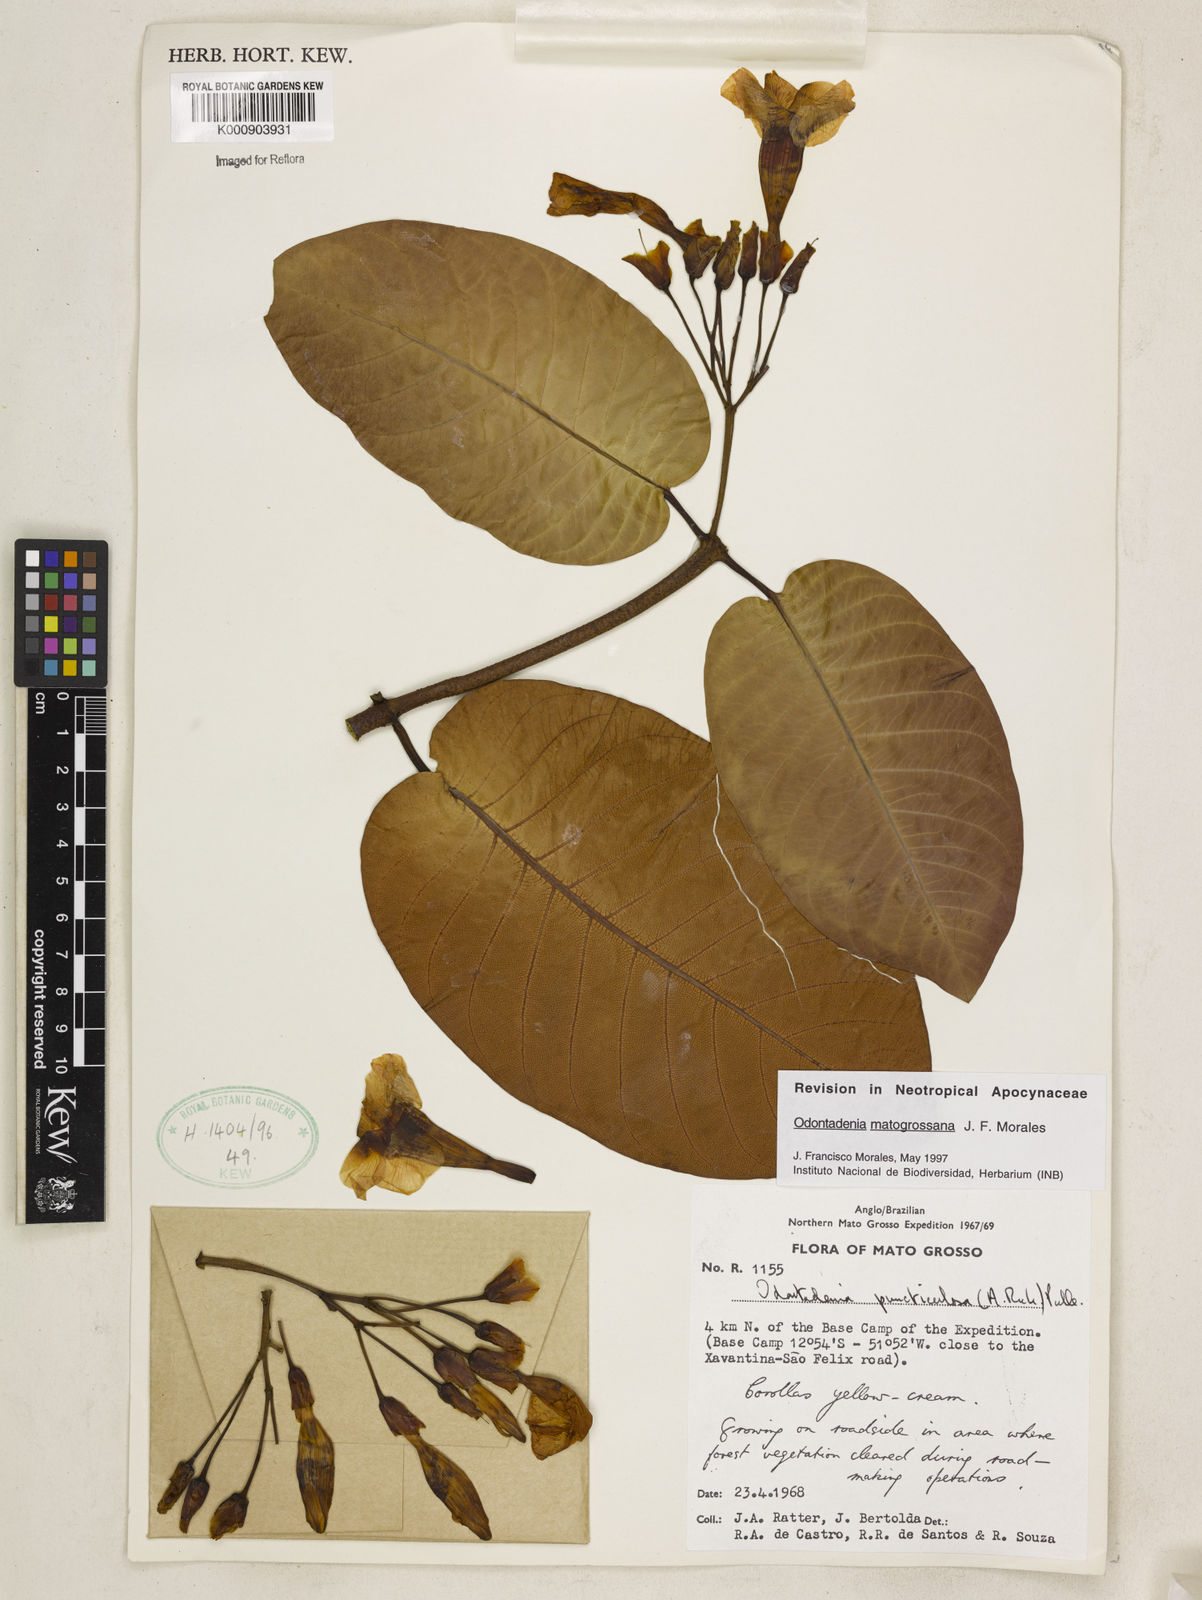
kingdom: Plantae
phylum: Tracheophyta
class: Magnoliopsida
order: Gentianales
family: Apocynaceae
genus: Odontadenia
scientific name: Odontadenia matogrossana
